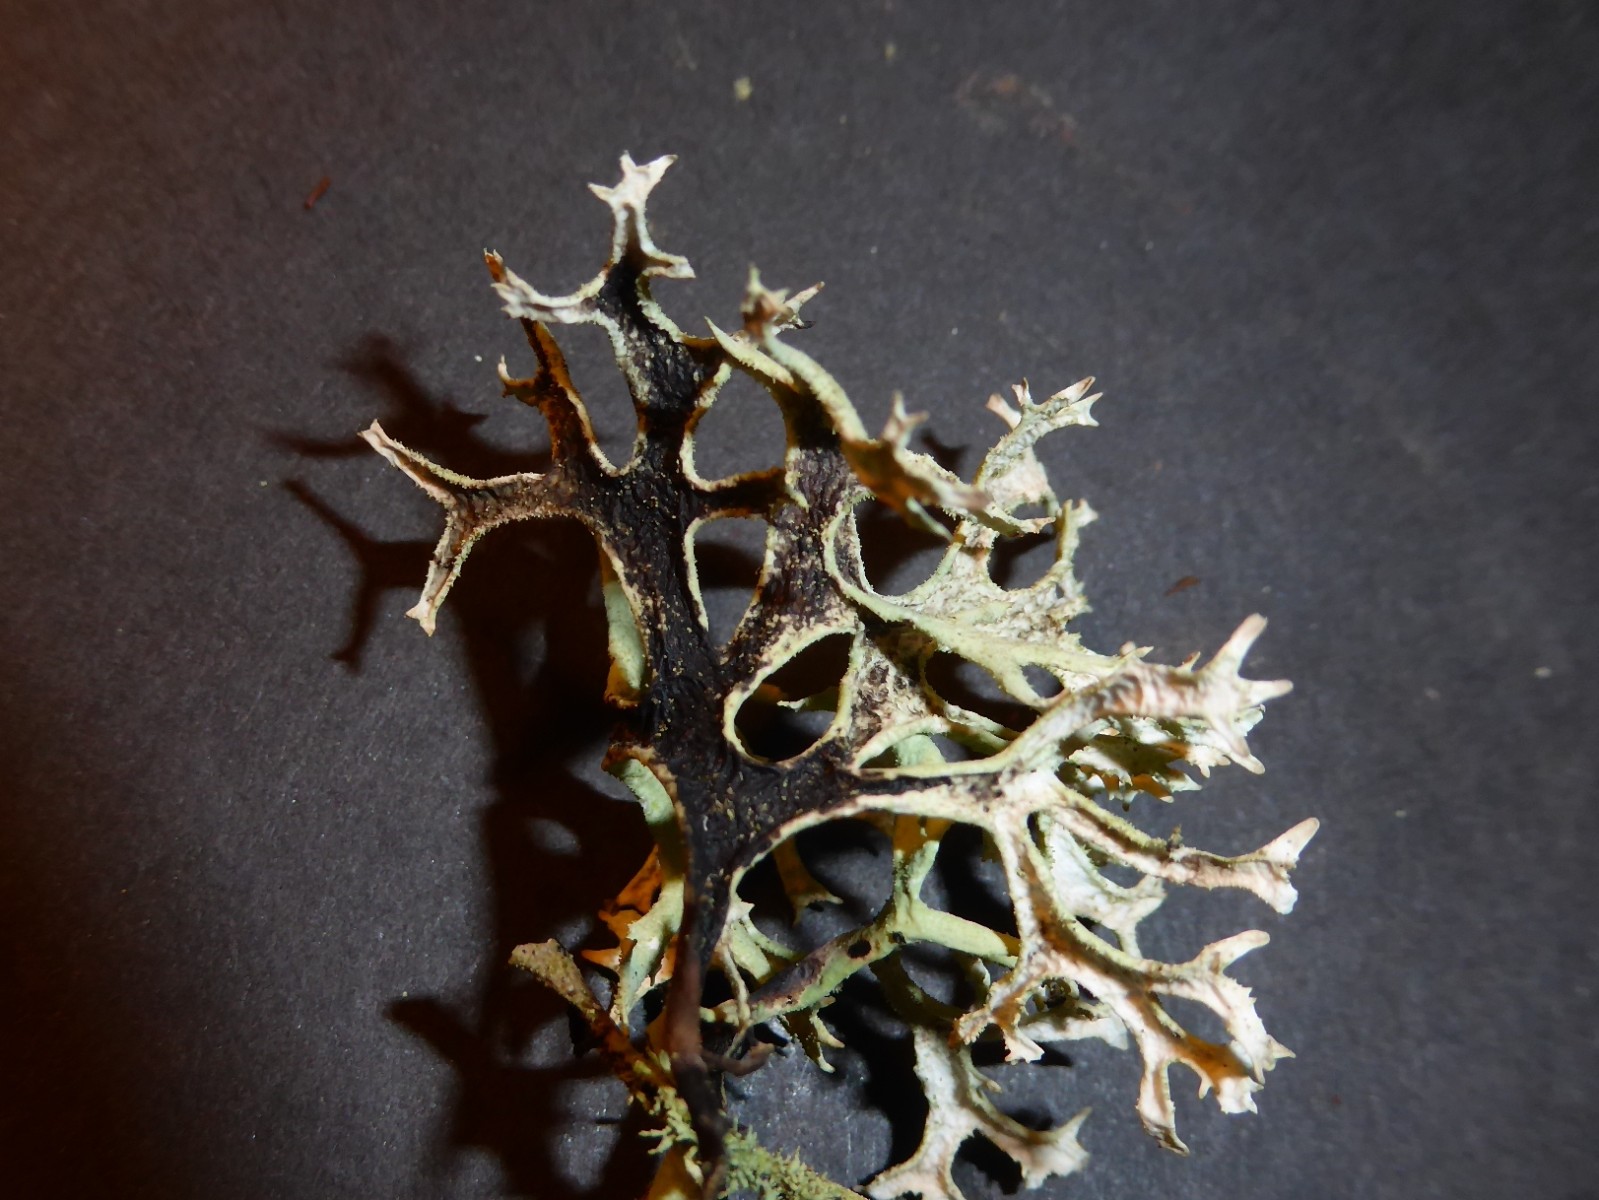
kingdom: Fungi
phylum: Ascomycota
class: Lecanoromycetes
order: Lecanorales
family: Parmeliaceae
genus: Pseudevernia
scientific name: Pseudevernia furfuracea
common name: grå fyrrelav
